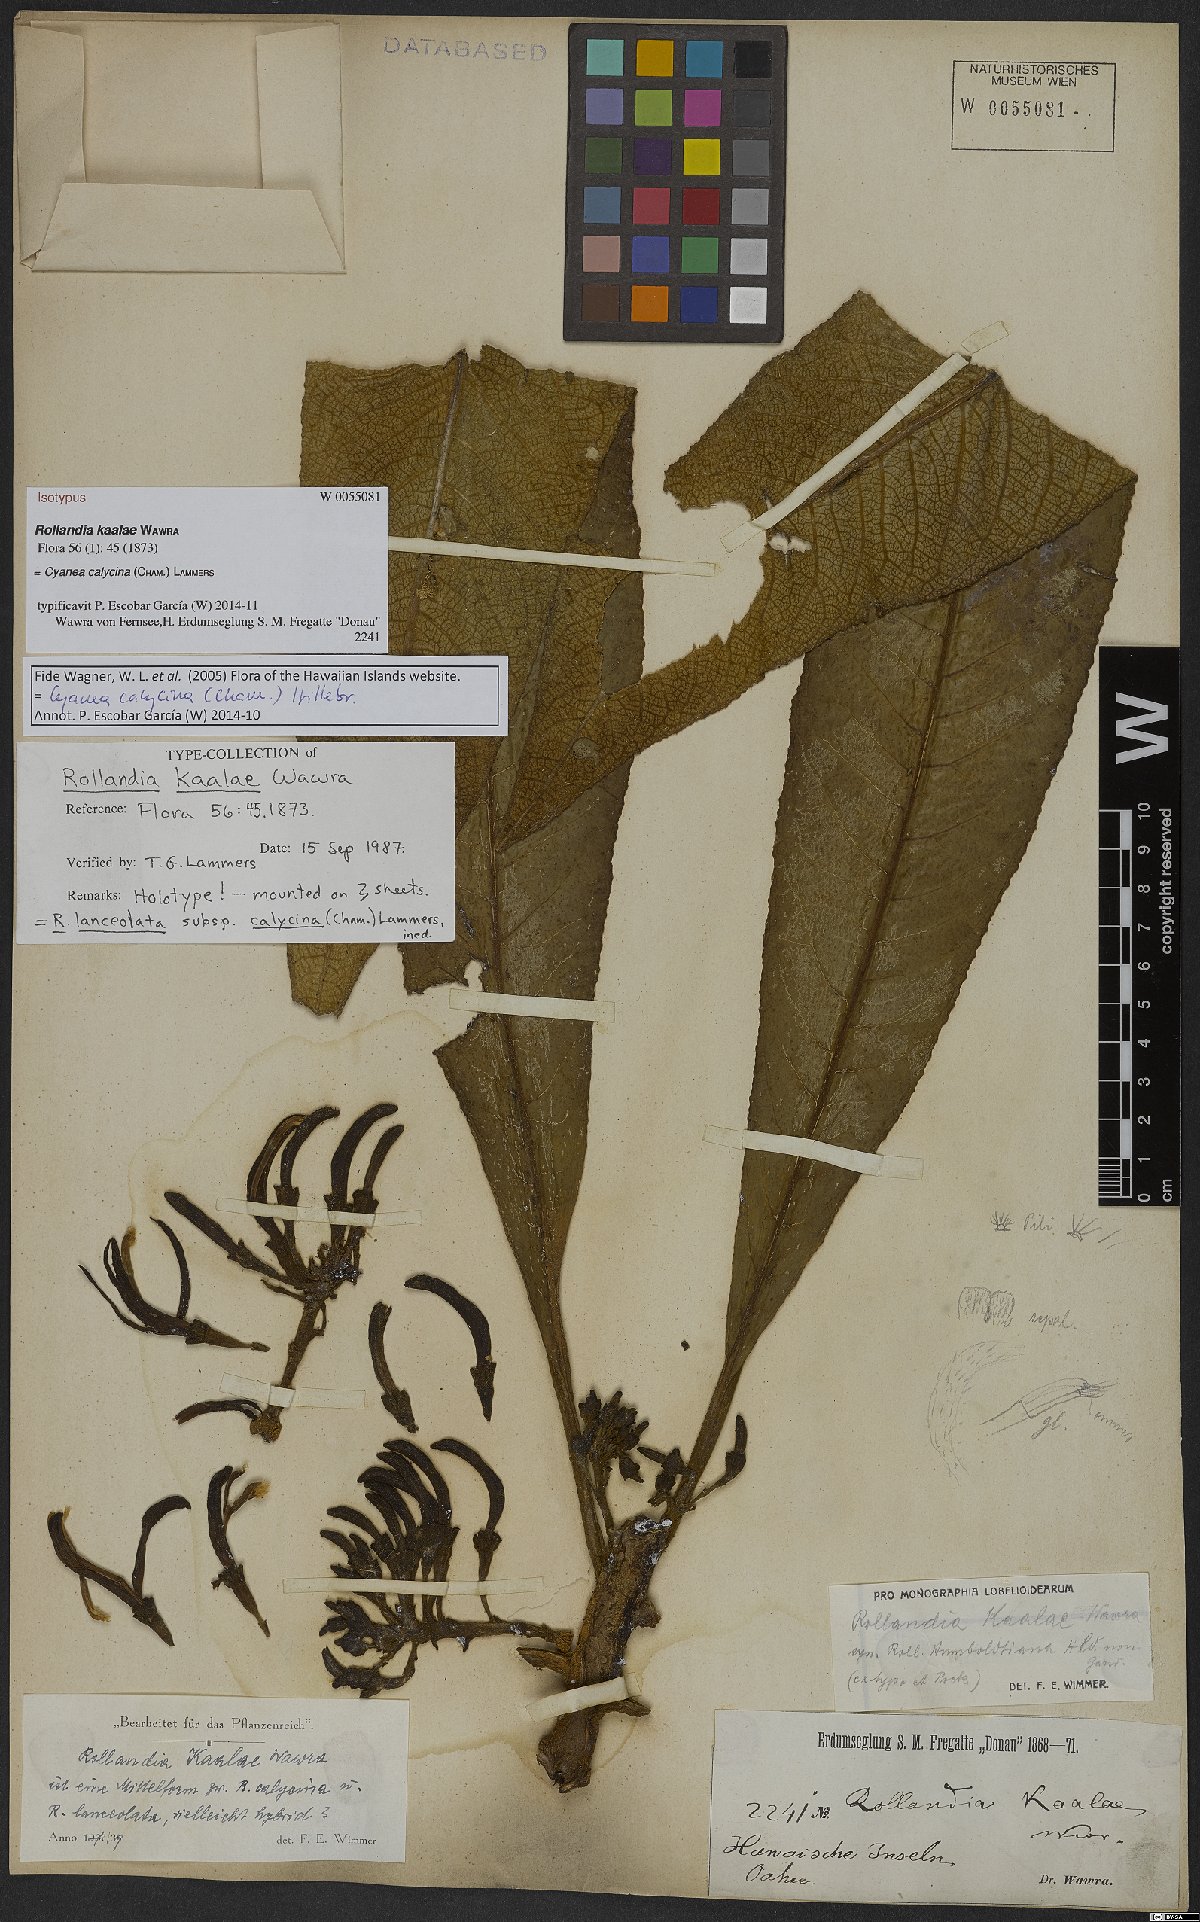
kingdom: Plantae
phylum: Tracheophyta
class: Magnoliopsida
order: Asterales
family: Campanulaceae
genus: Cyanea
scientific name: Cyanea calycina
